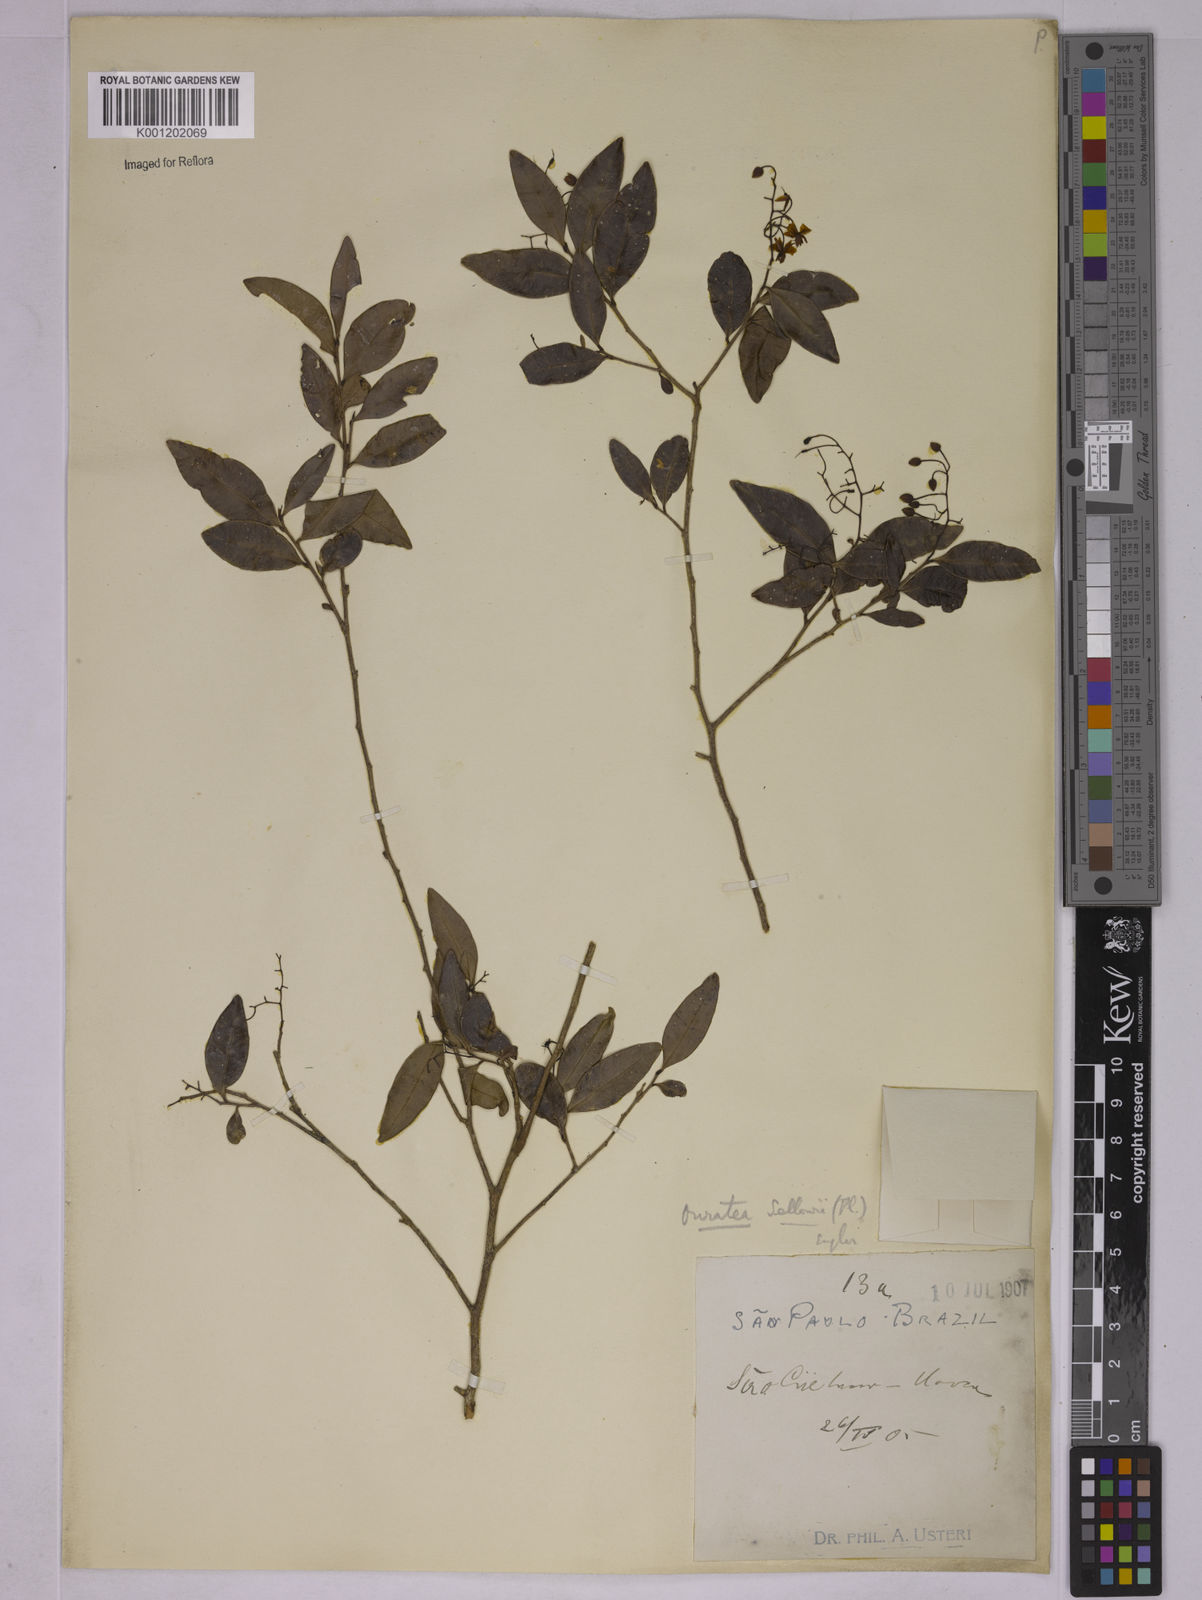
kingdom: Plantae
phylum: Tracheophyta
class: Magnoliopsida
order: Malpighiales
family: Ochnaceae
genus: Ouratea
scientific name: Ouratea sellowii
